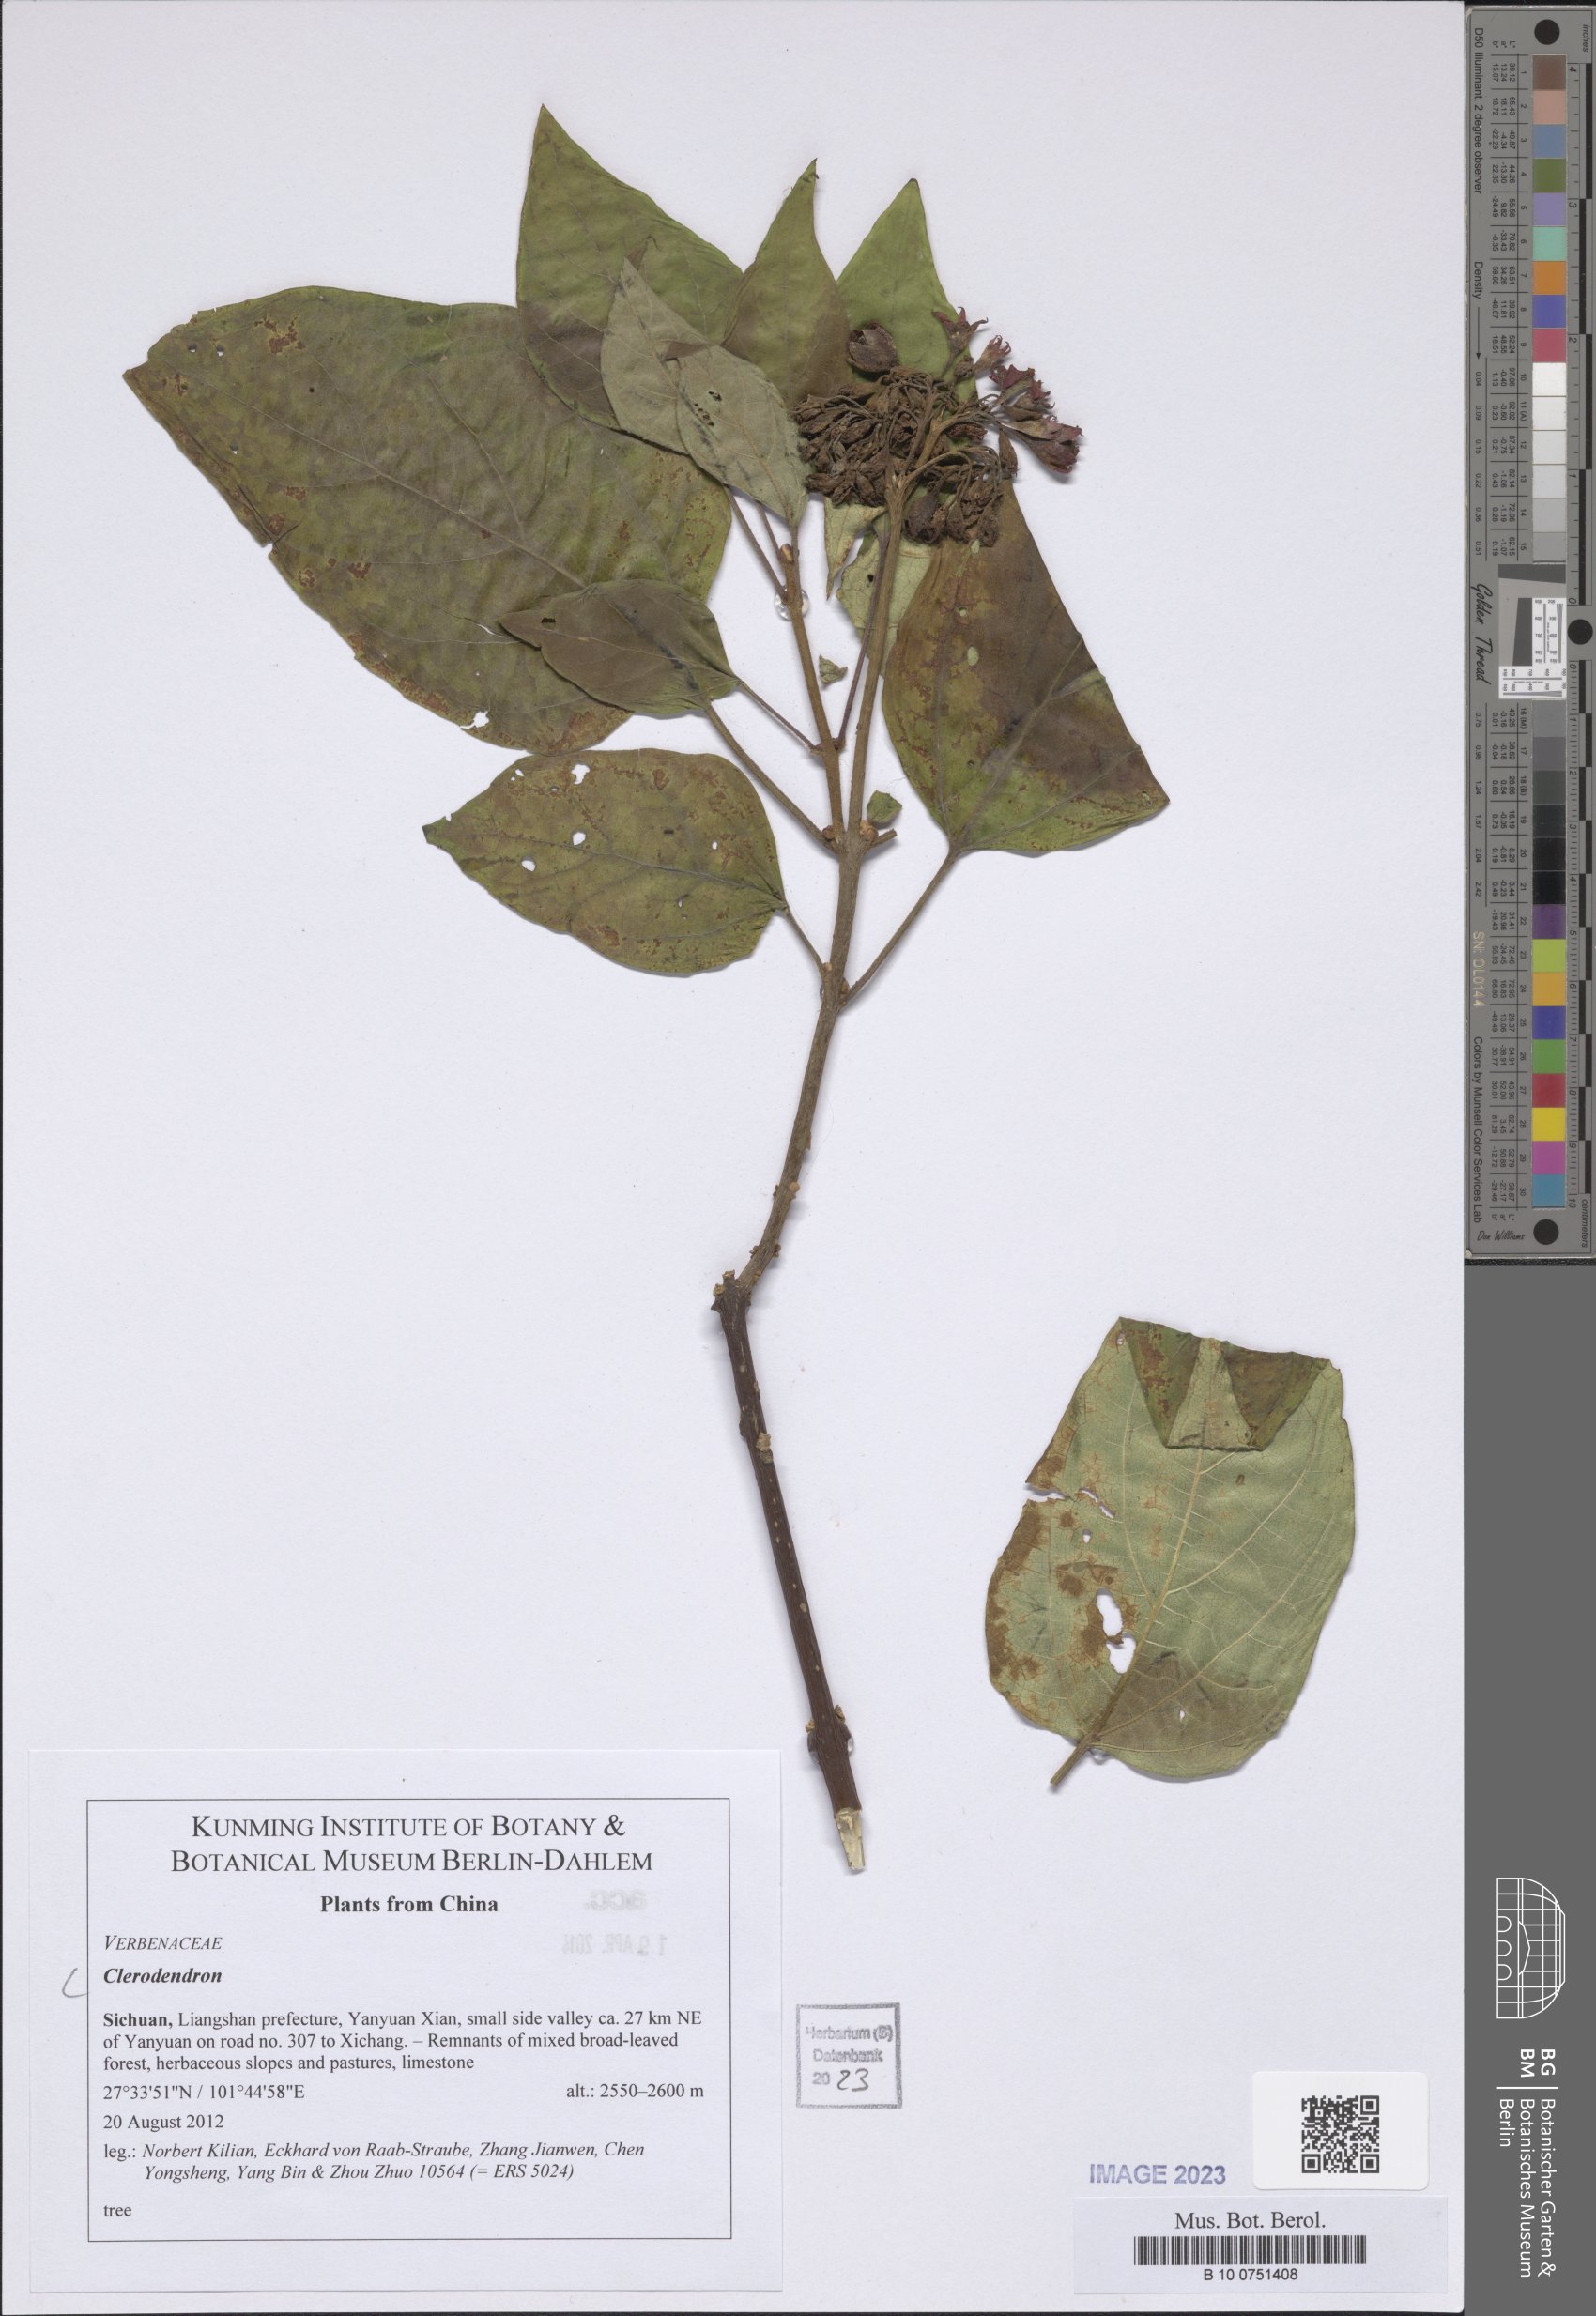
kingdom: Plantae
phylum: Tracheophyta
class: Magnoliopsida
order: Lamiales
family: Lamiaceae
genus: Clerodendrum
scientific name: Clerodendrum
